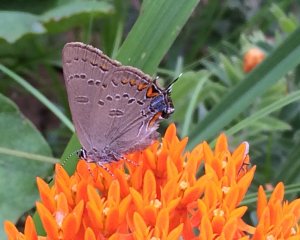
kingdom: Animalia
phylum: Arthropoda
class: Insecta
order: Lepidoptera
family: Lycaenidae
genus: Satyrium
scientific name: Satyrium edwardsii
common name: Edwards' Hairstreak
